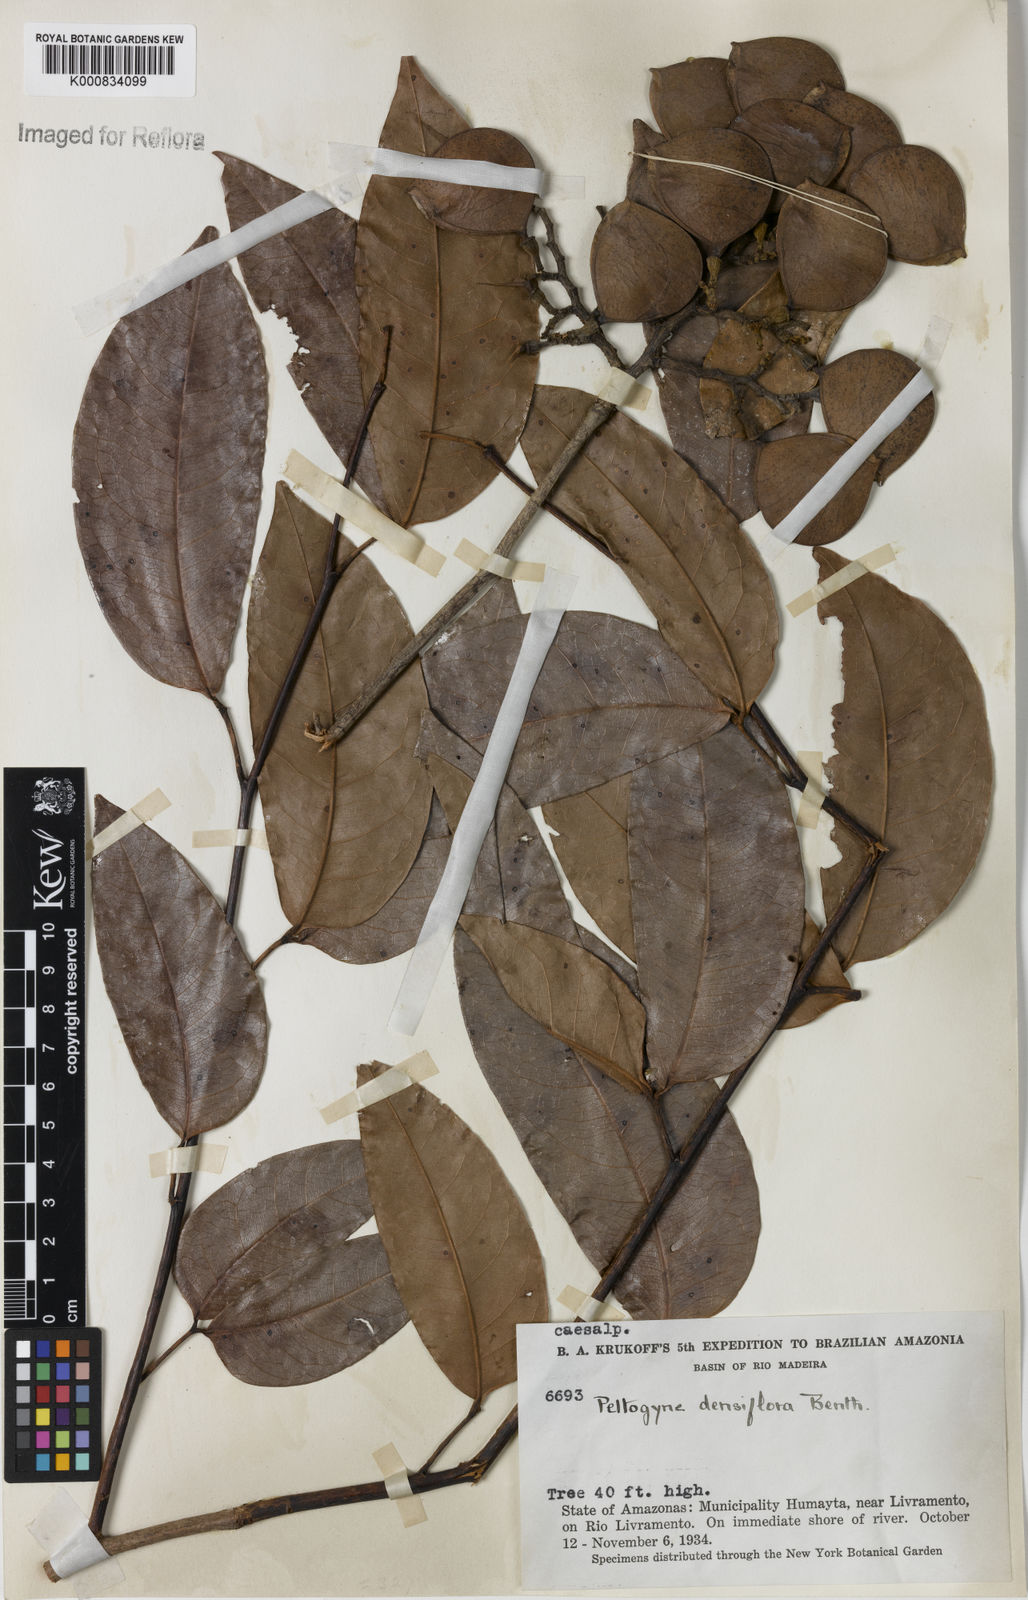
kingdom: Plantae
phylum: Tracheophyta
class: Magnoliopsida
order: Fabales
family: Fabaceae
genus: Peltogyne
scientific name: Peltogyne venosa
